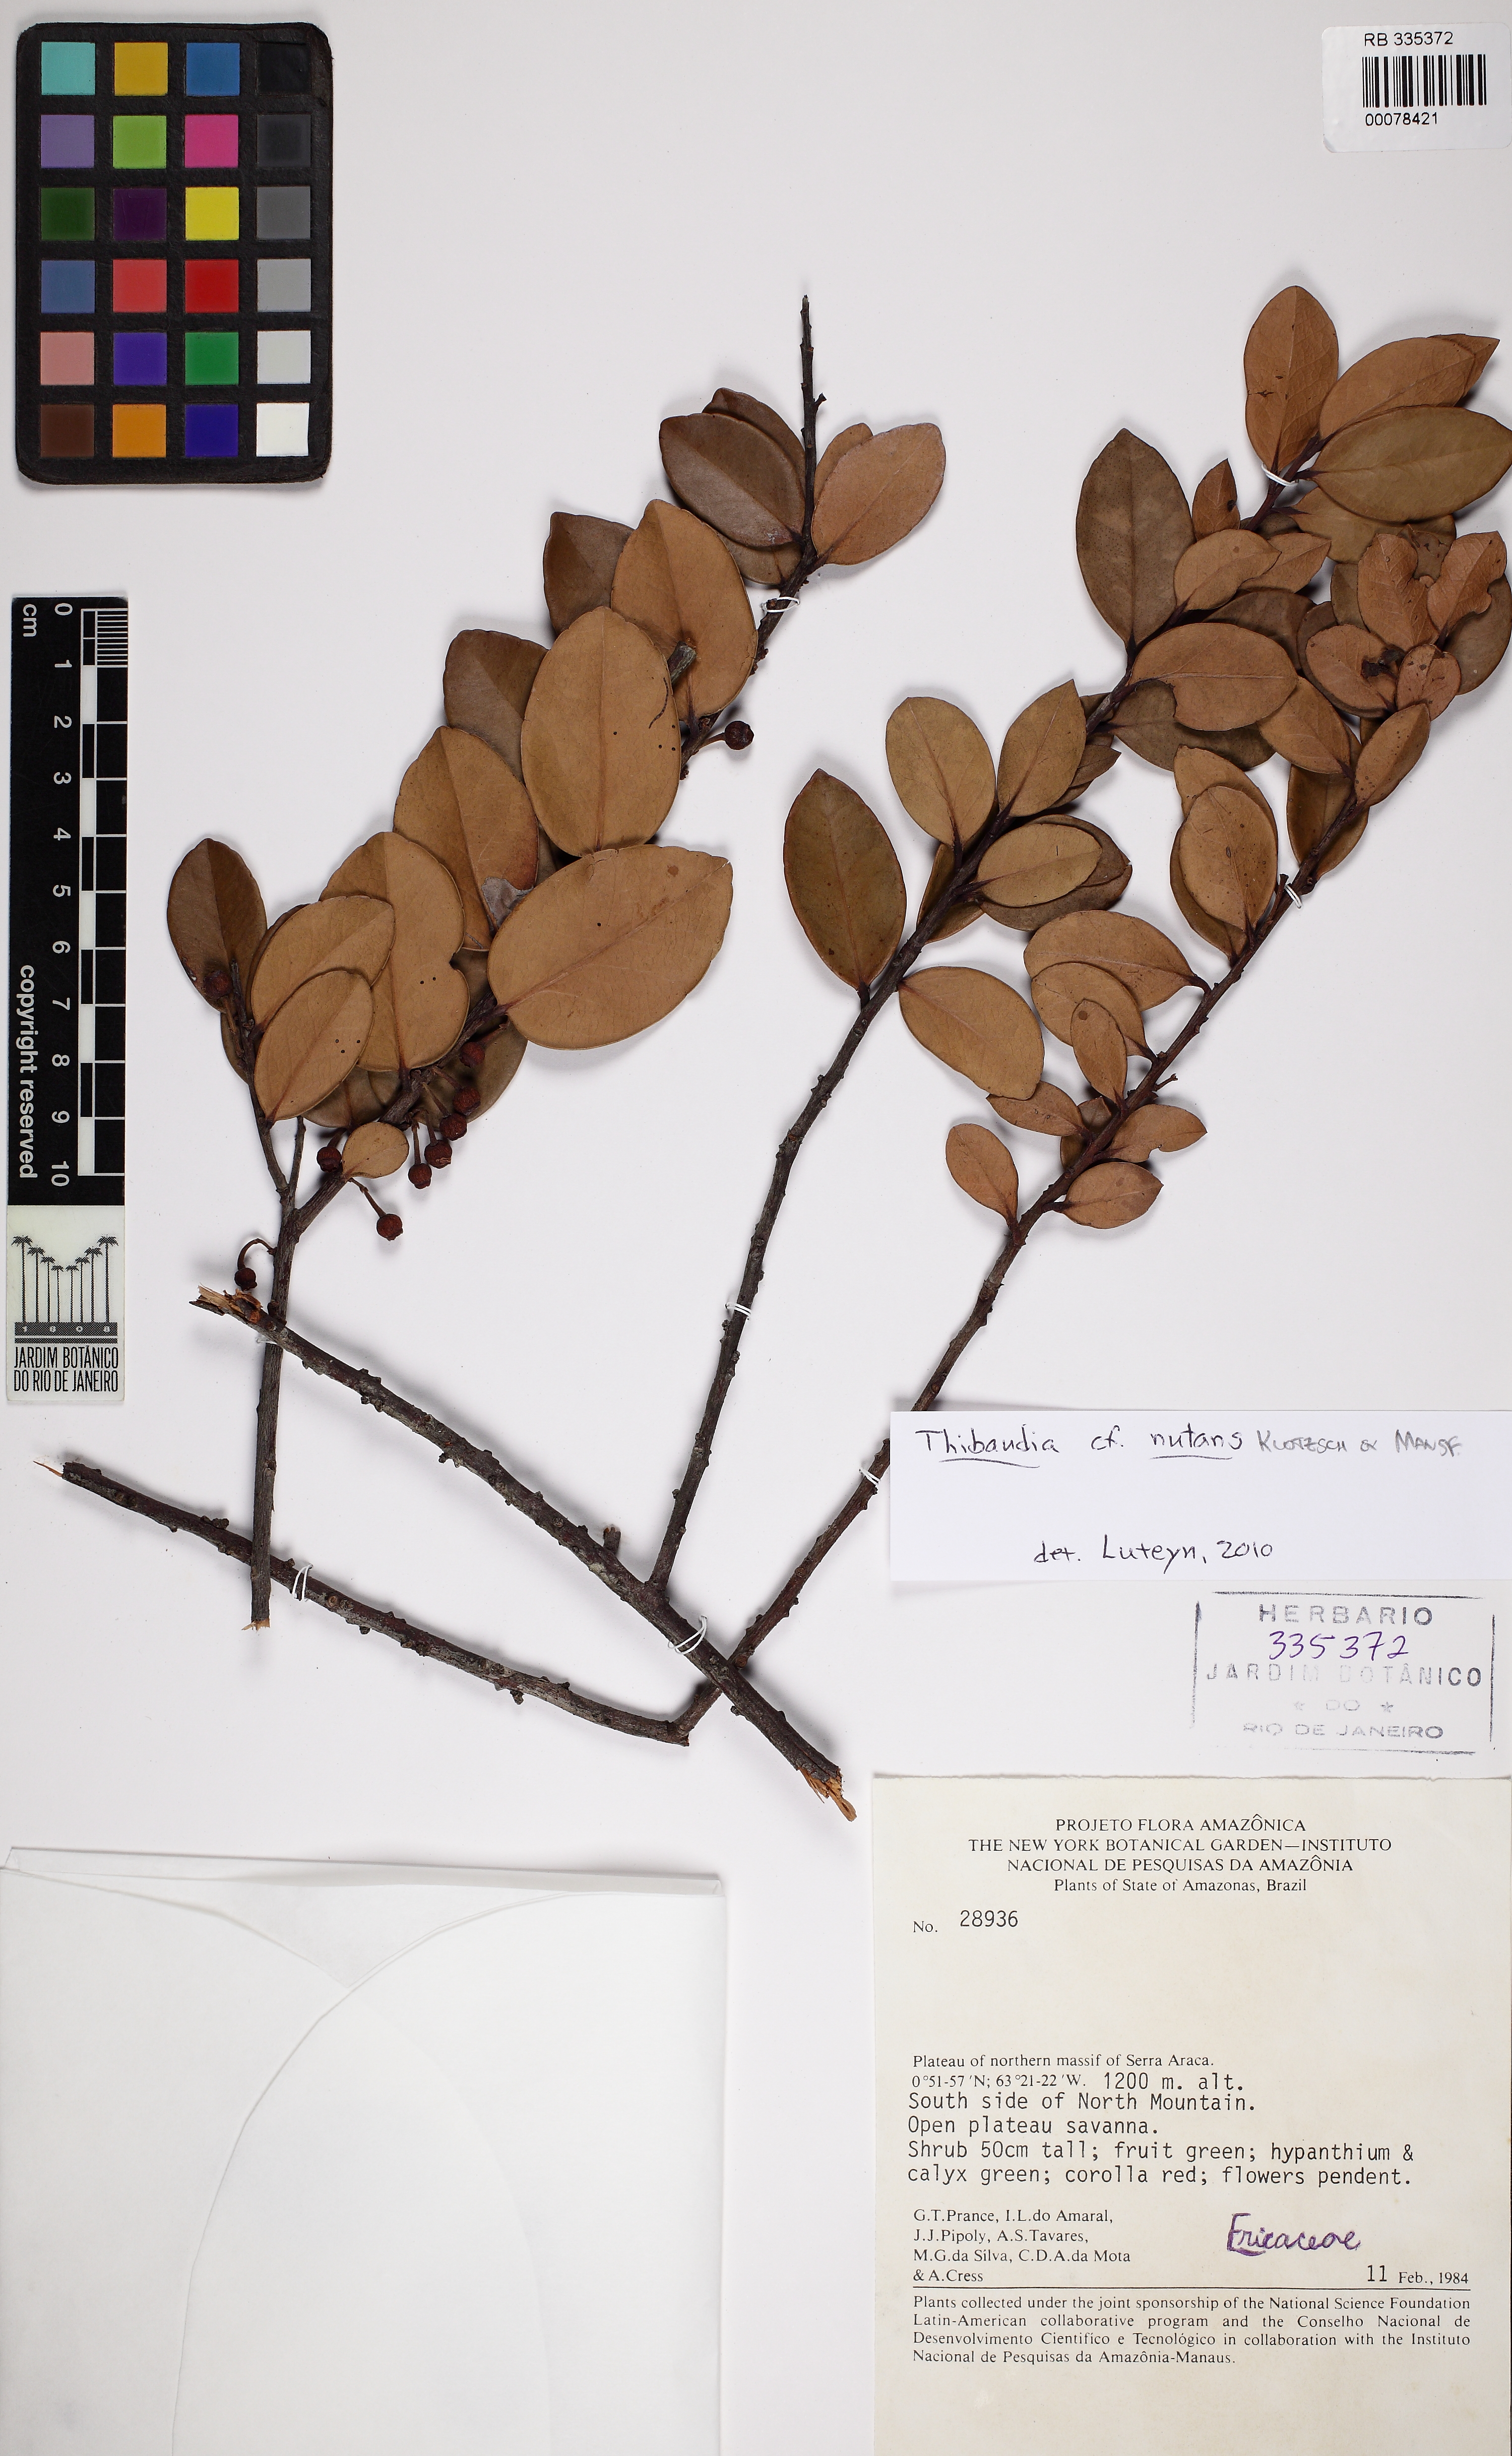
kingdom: Plantae
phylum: Tracheophyta
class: Magnoliopsida
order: Ericales
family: Ericaceae
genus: Psammisia
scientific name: Psammisia coarctata
